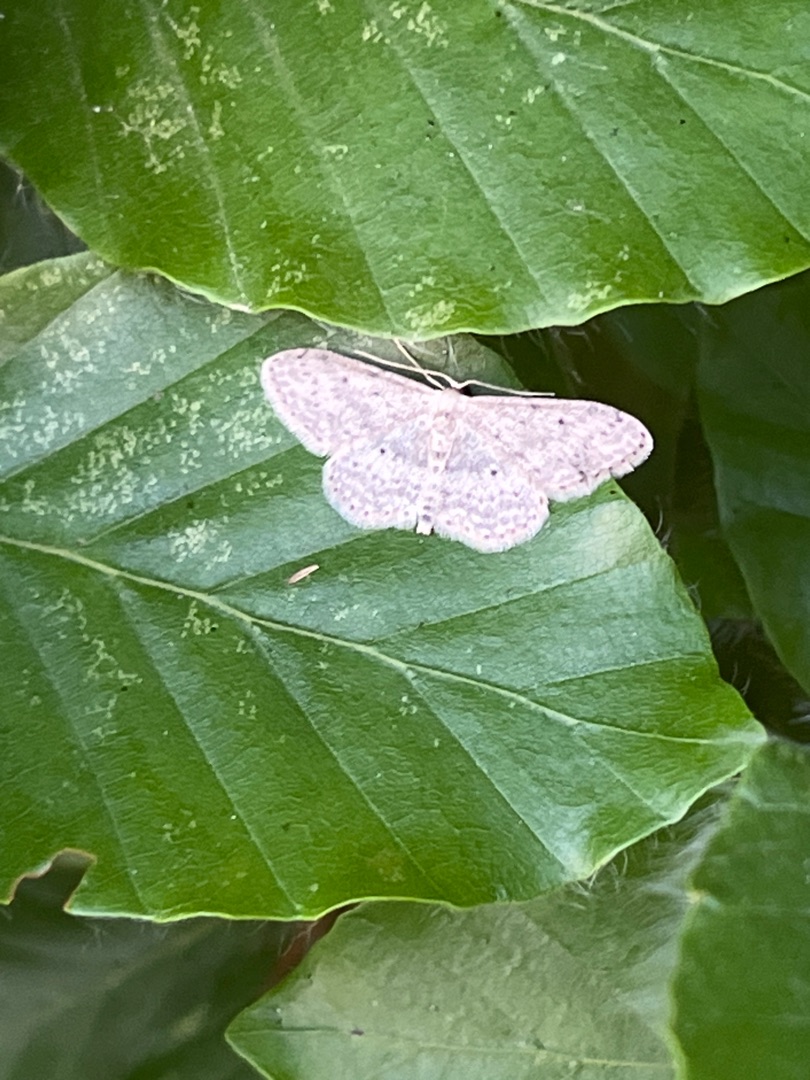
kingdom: Animalia
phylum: Arthropoda
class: Insecta
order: Lepidoptera
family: Geometridae
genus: Idaea
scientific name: Idaea seriata
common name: Gråplettet løvmåler
